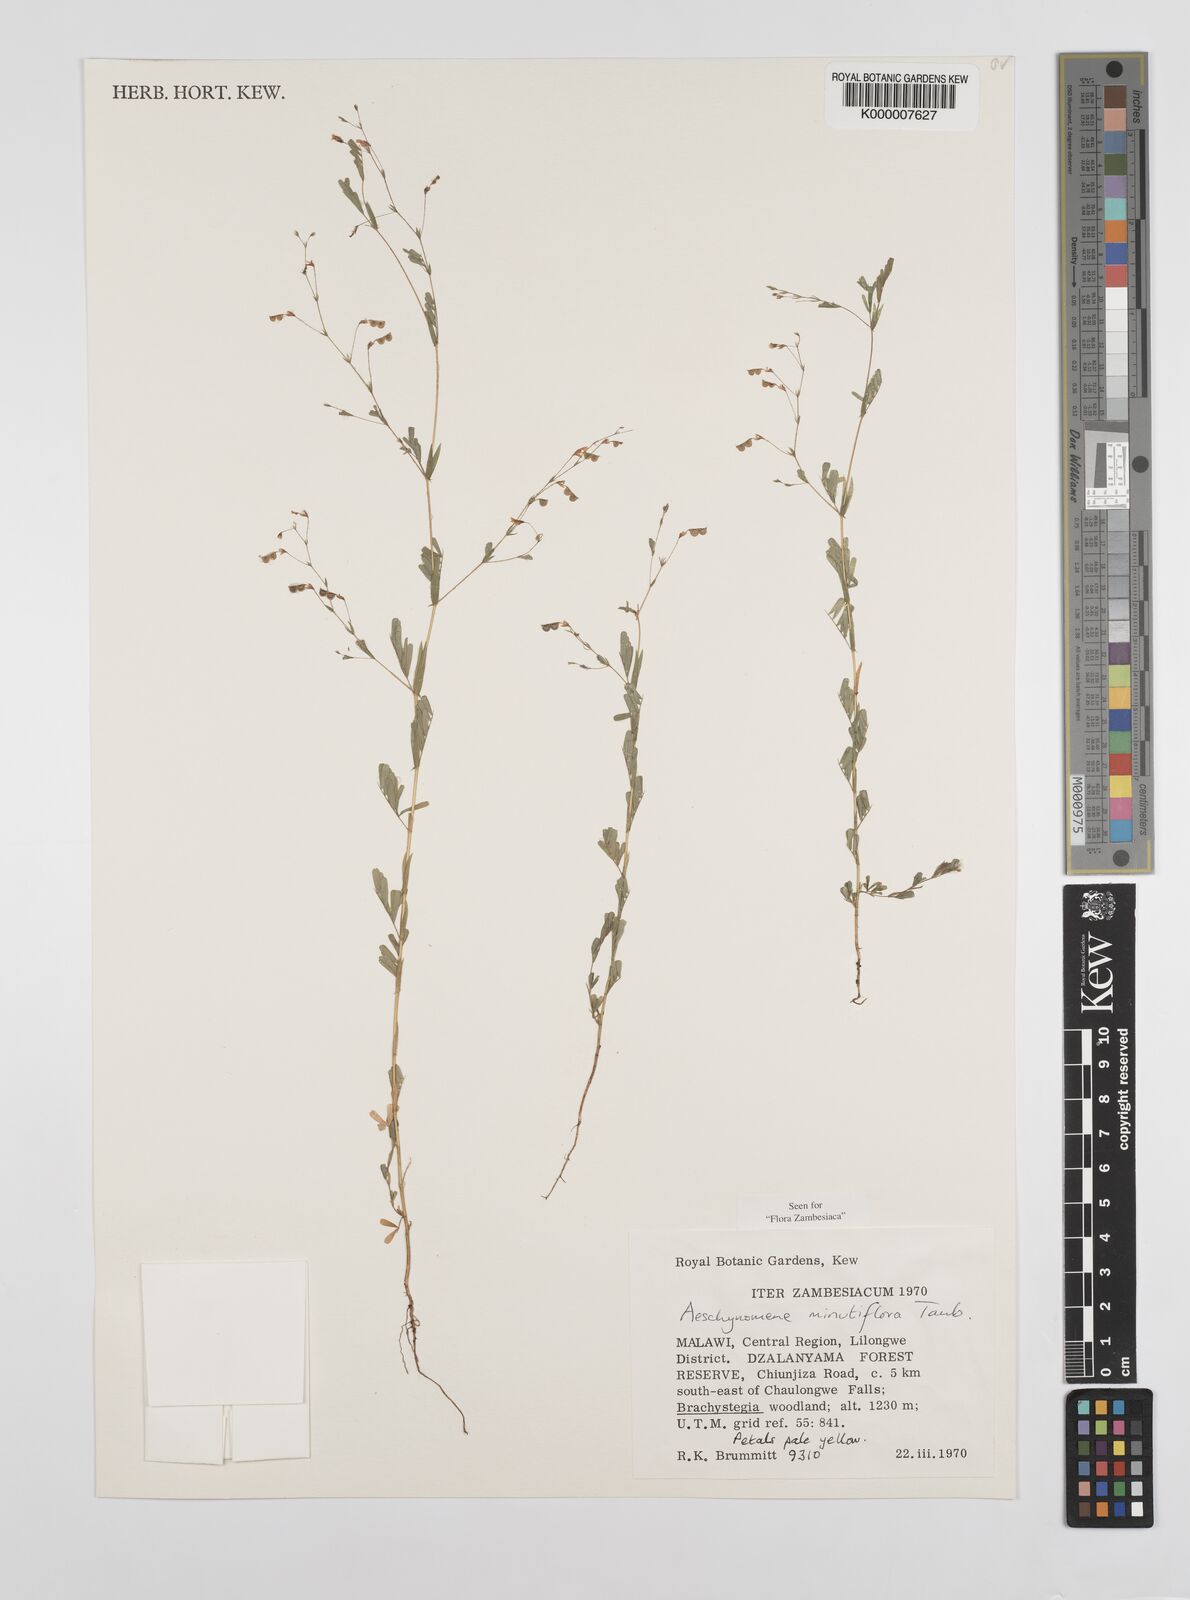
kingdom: Plantae
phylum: Tracheophyta
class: Magnoliopsida
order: Fabales
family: Fabaceae
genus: Aeschynomene
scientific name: Aeschynomene minutiflora
